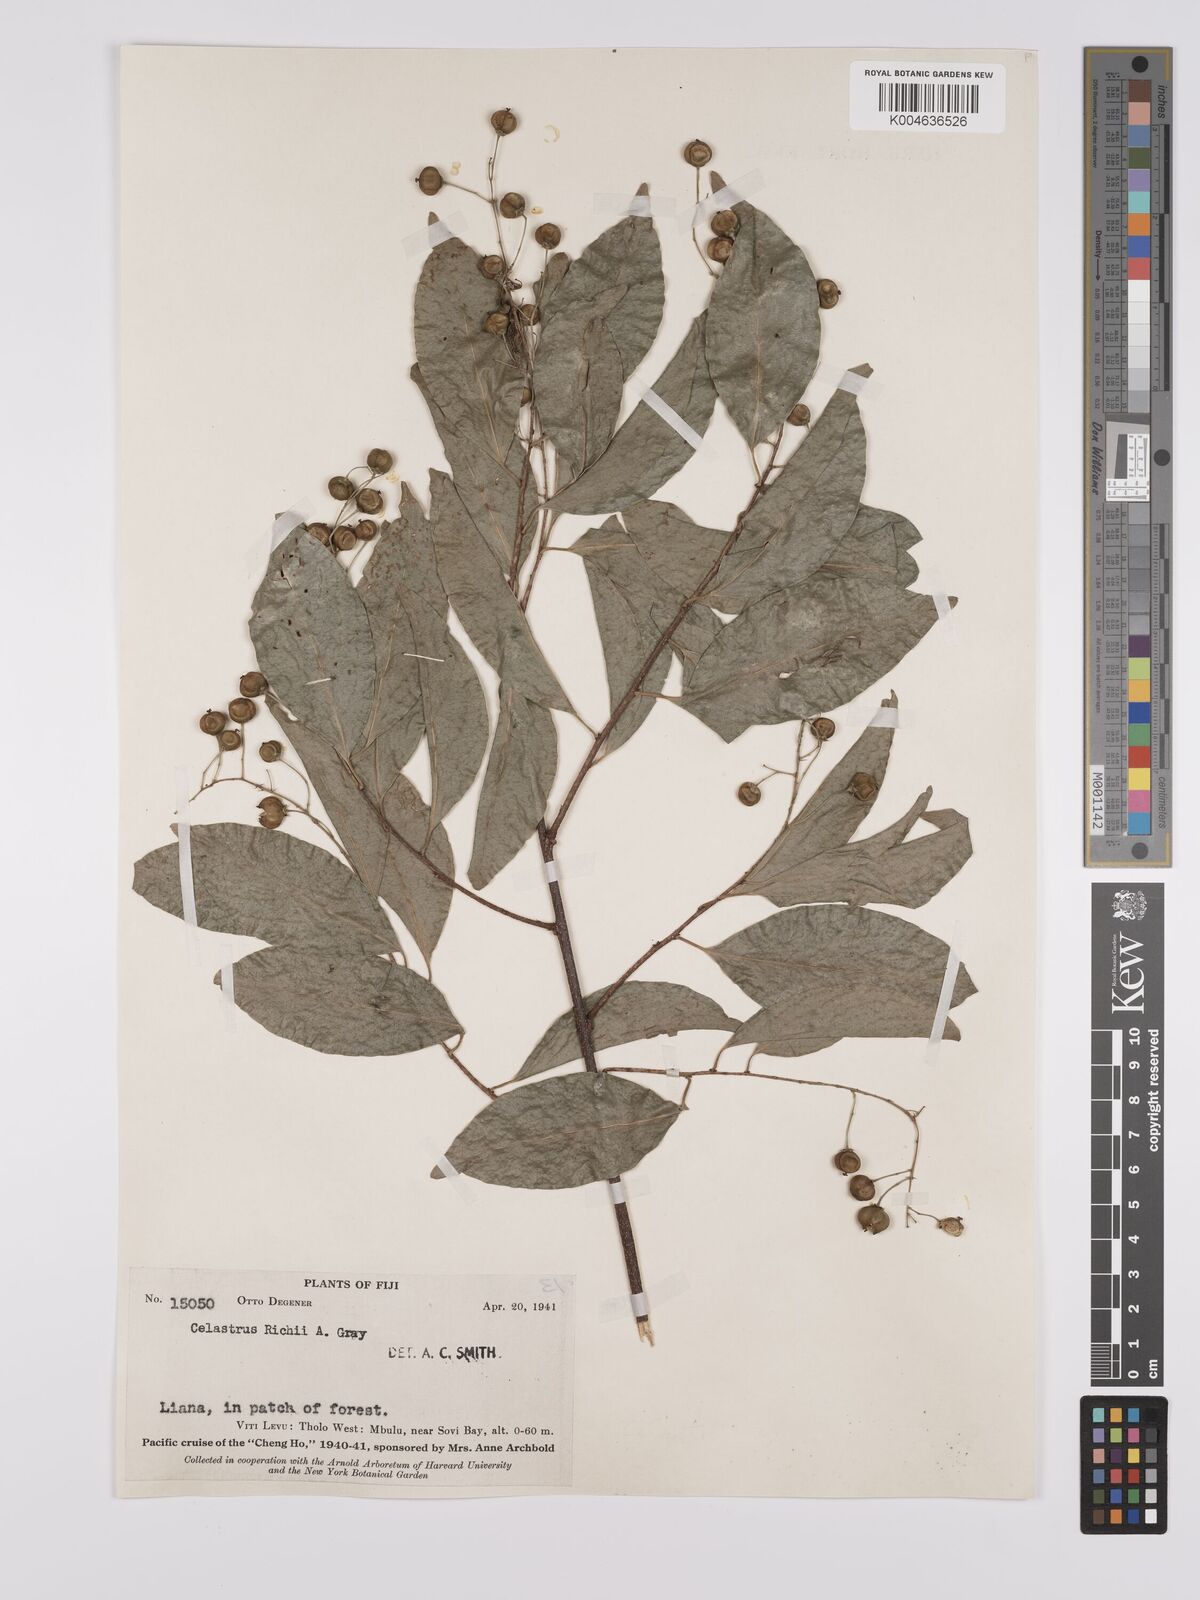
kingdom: Plantae
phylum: Tracheophyta
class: Magnoliopsida
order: Celastrales
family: Celastraceae
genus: Celastrus
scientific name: Celastrus richii
